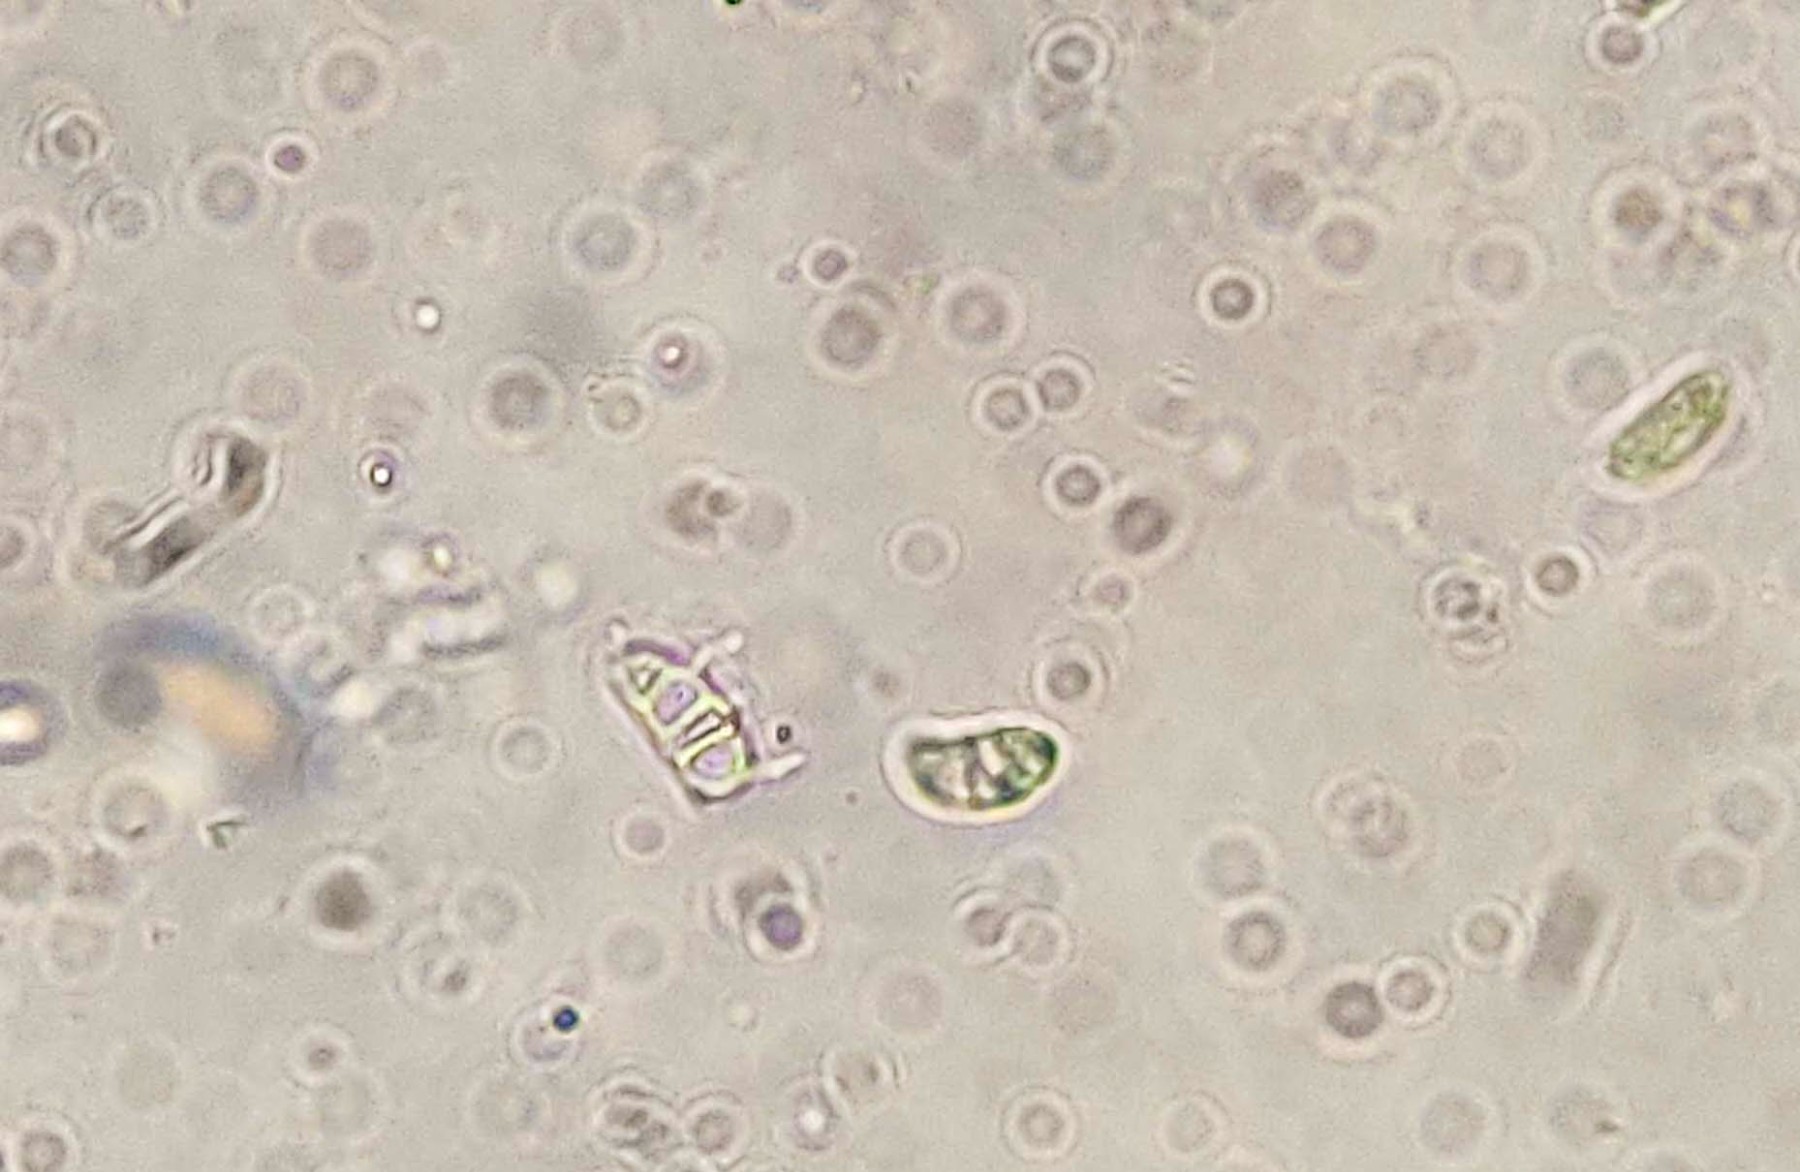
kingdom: Fungi
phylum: Basidiomycota
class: Dacrymycetes
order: Dacrymycetales
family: Dacrymycetaceae
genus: Dacrymyces
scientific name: Dacrymyces lacrymalis
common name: rynket tåresvamp
